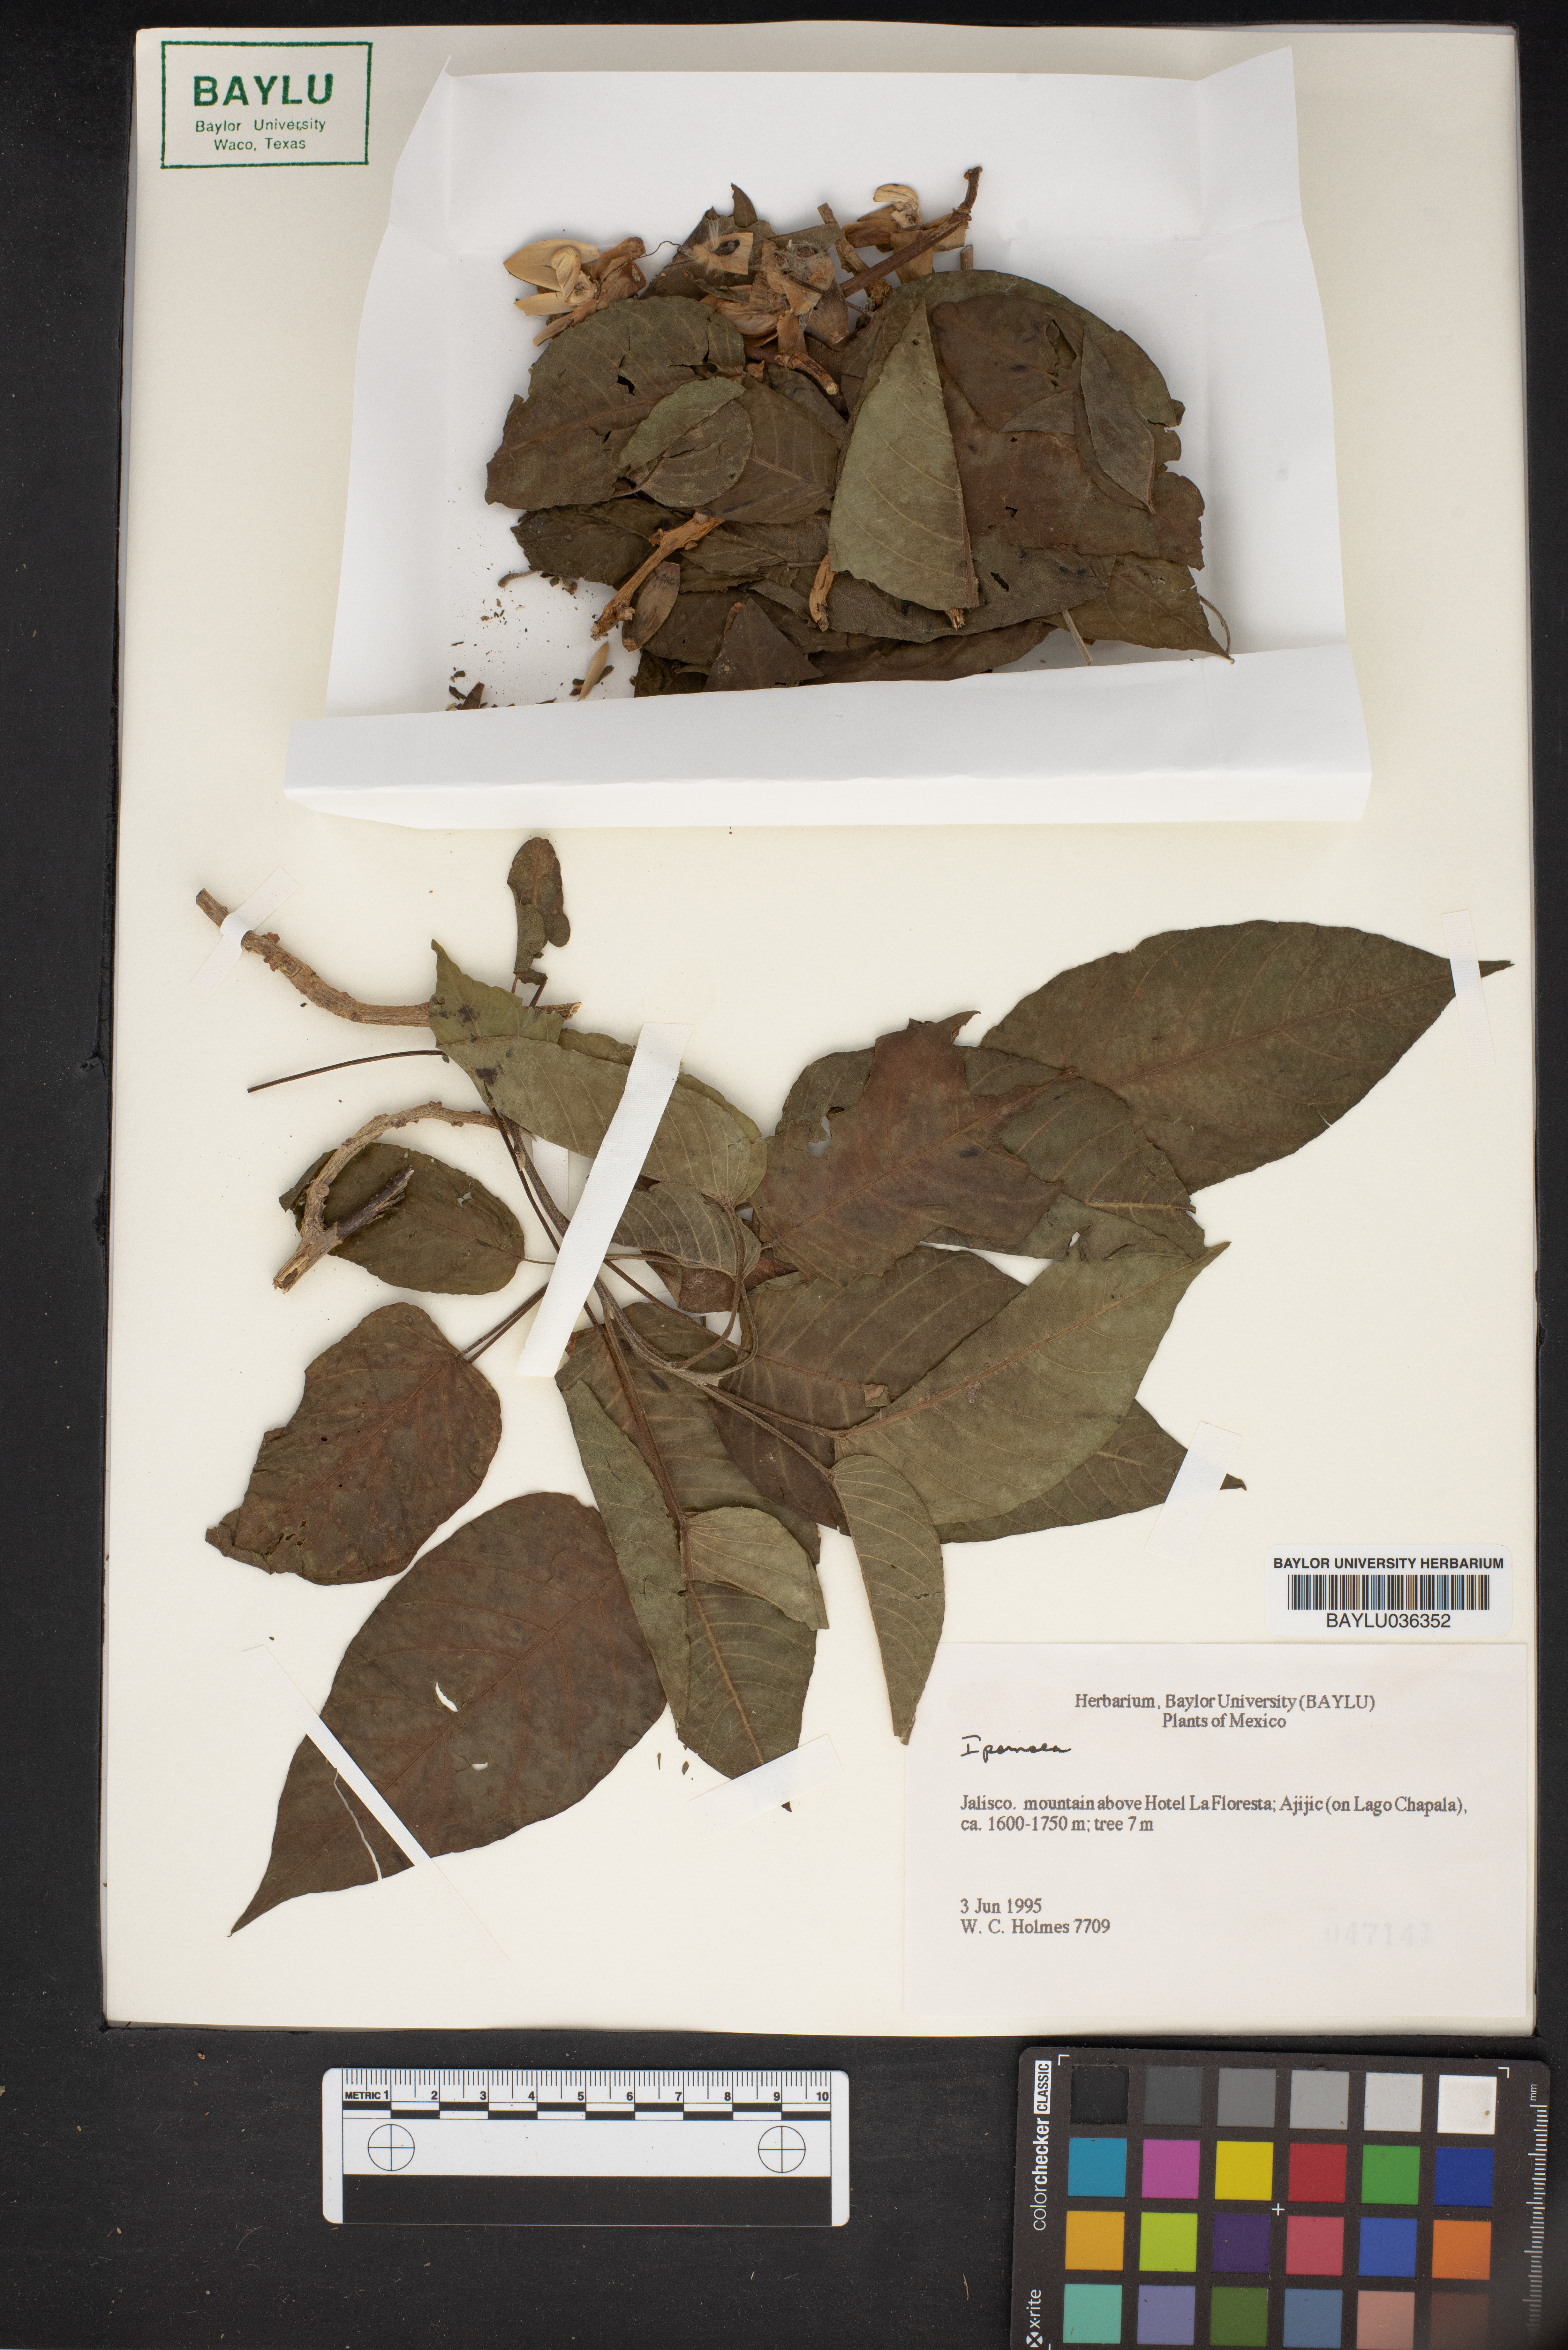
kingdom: Plantae
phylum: Tracheophyta
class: Magnoliopsida
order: Solanales
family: Convolvulaceae
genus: Ipomoea
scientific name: Ipomoea
